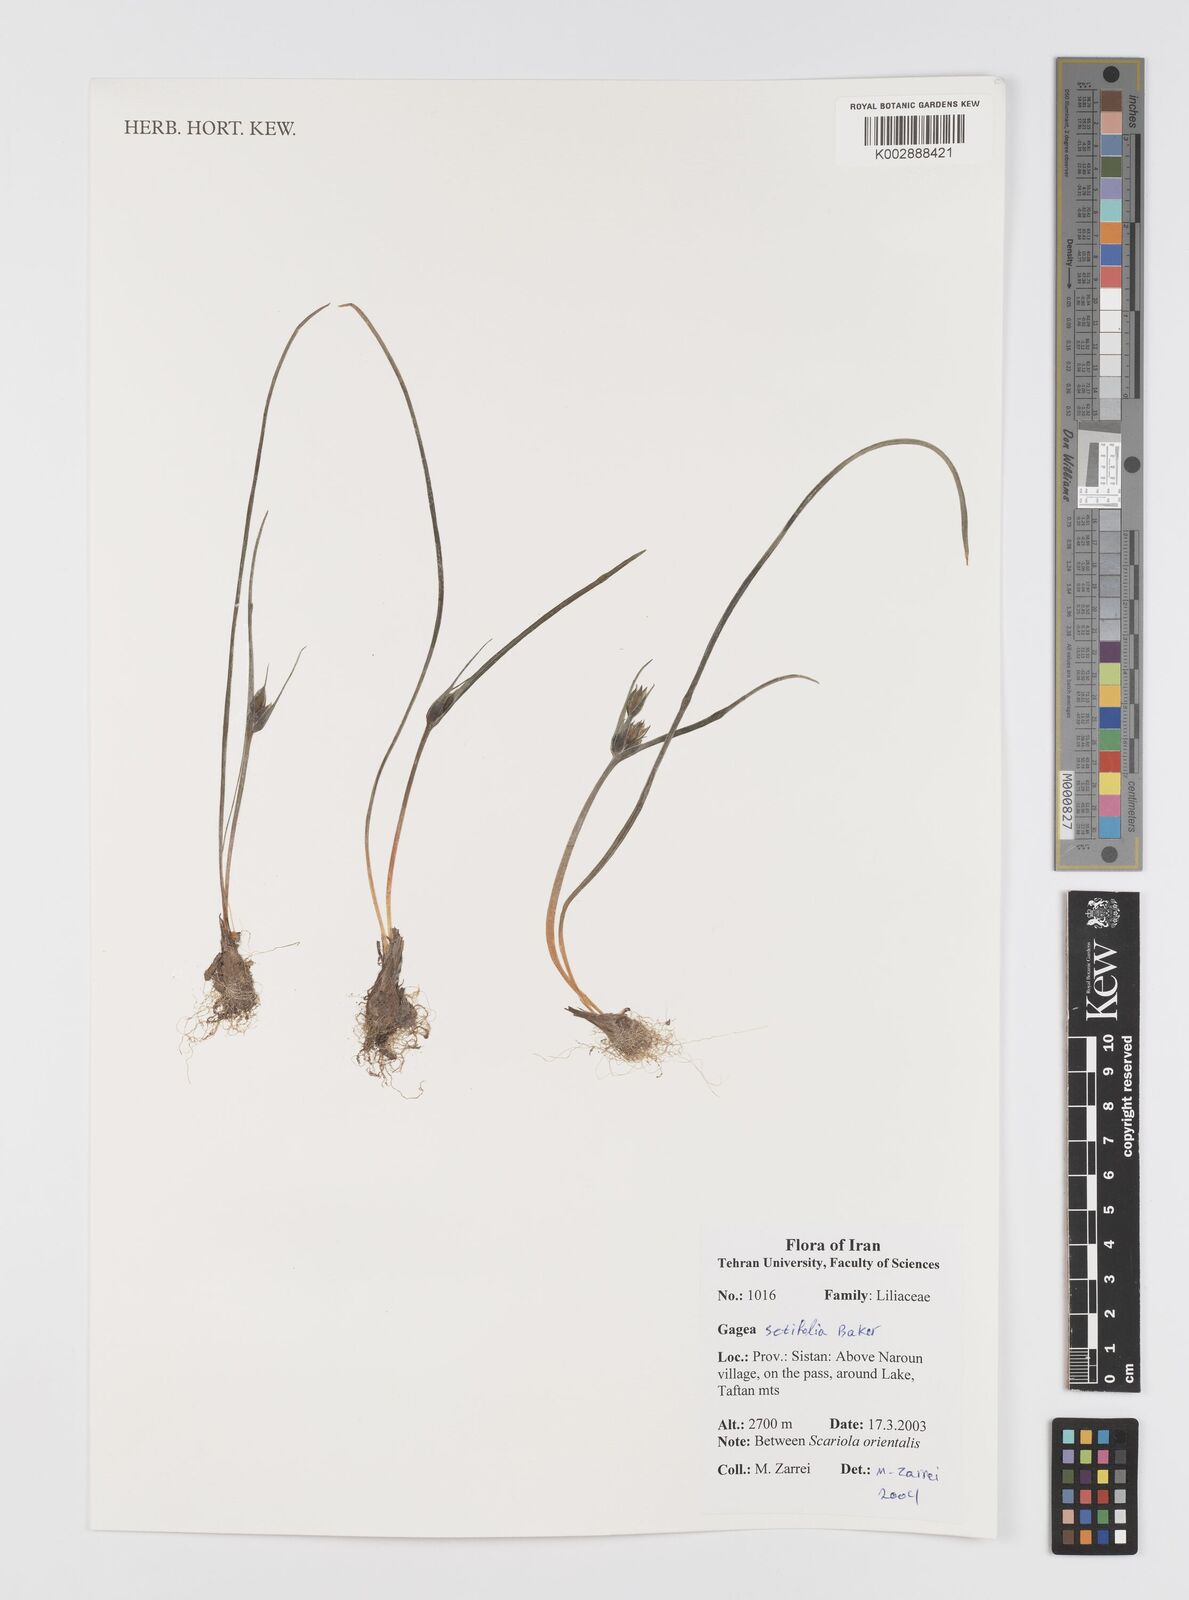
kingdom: Plantae
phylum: Tracheophyta
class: Liliopsida
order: Liliales
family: Liliaceae
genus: Gagea
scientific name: Gagea setifolia
